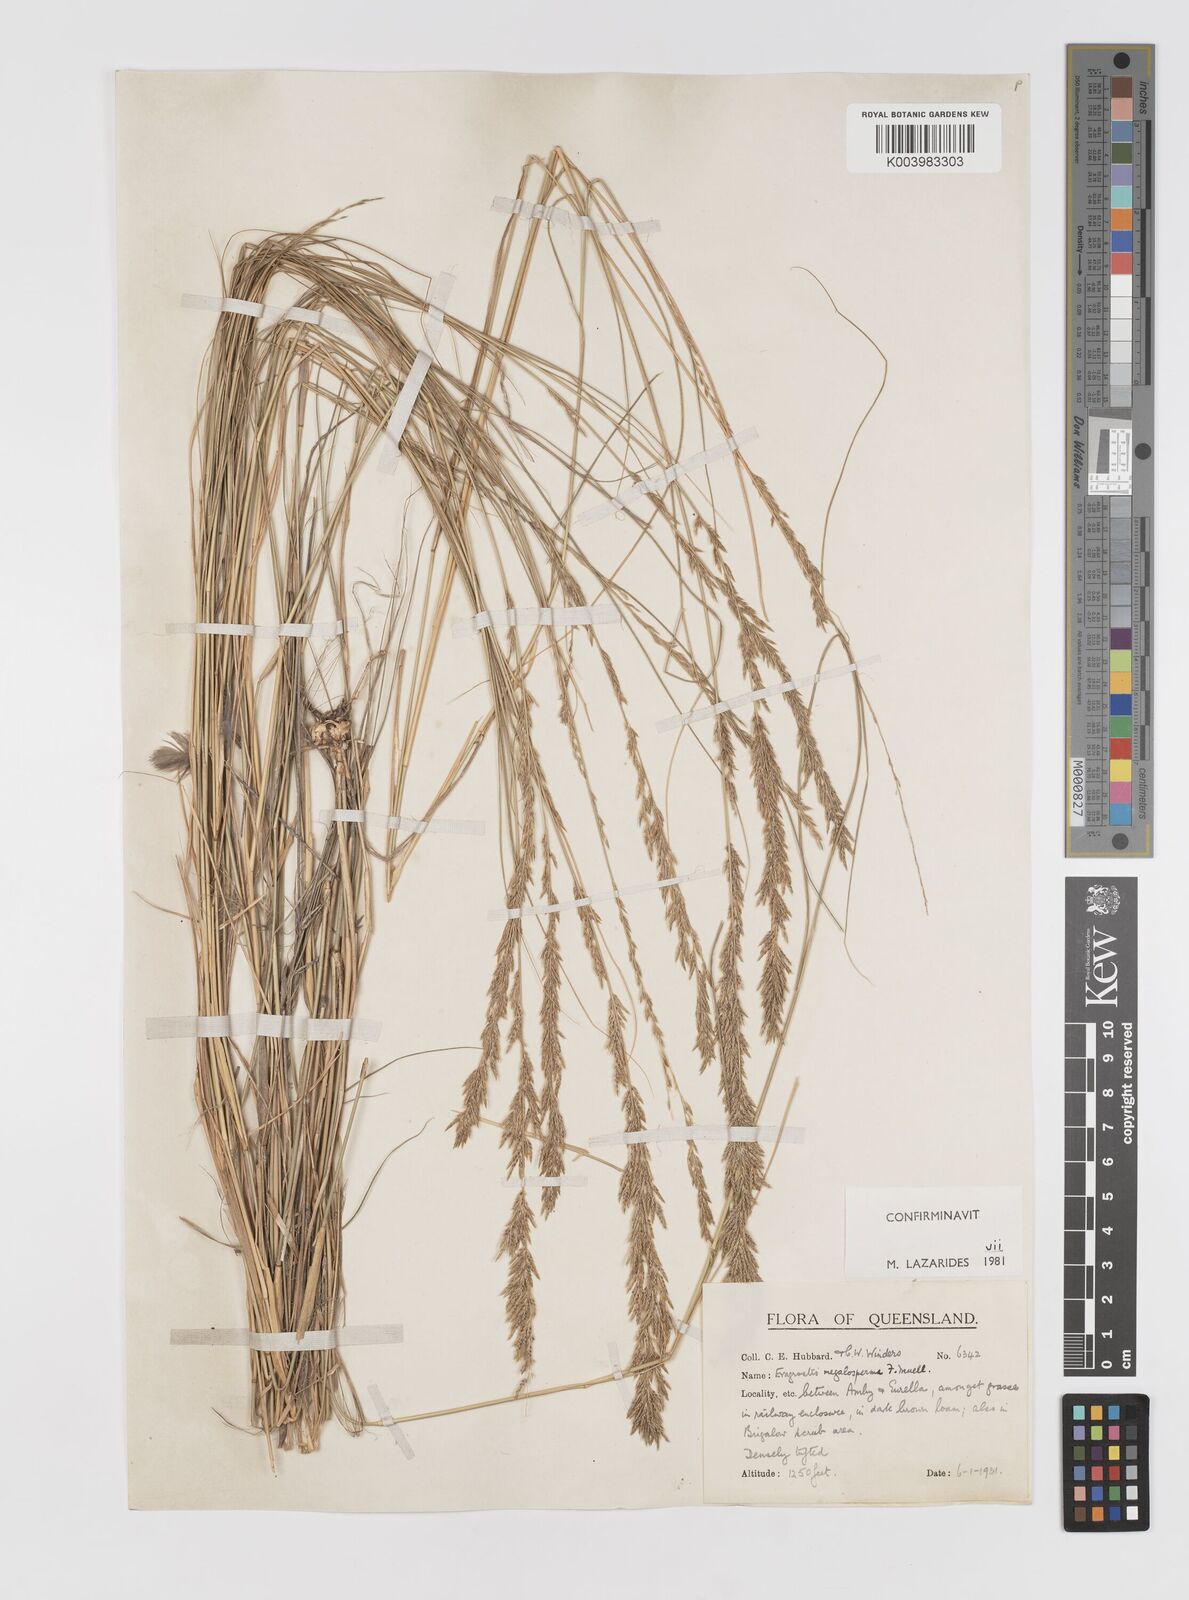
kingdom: Plantae
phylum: Tracheophyta
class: Liliopsida
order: Poales
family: Poaceae
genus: Sporobolus
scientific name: Sporobolus megalospermus
